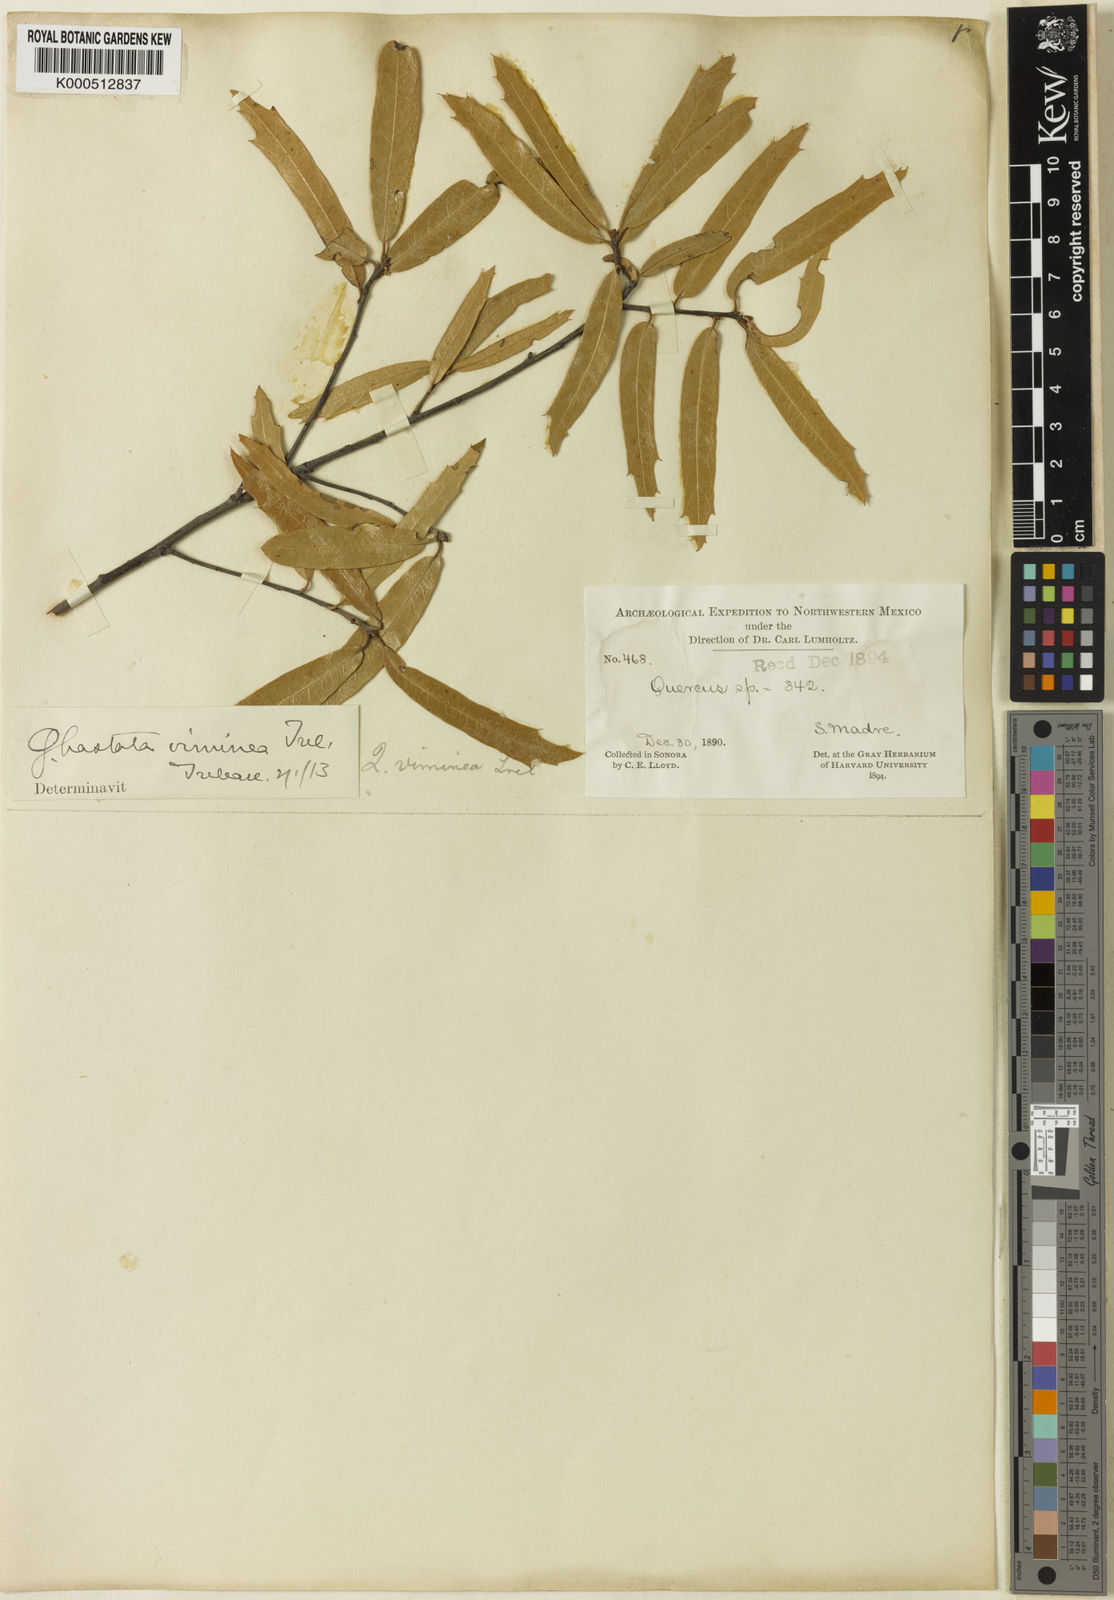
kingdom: Plantae
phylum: Tracheophyta
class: Magnoliopsida
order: Fagales
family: Fagaceae
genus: Quercus
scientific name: Quercus viminea
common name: Mexican willow oak
